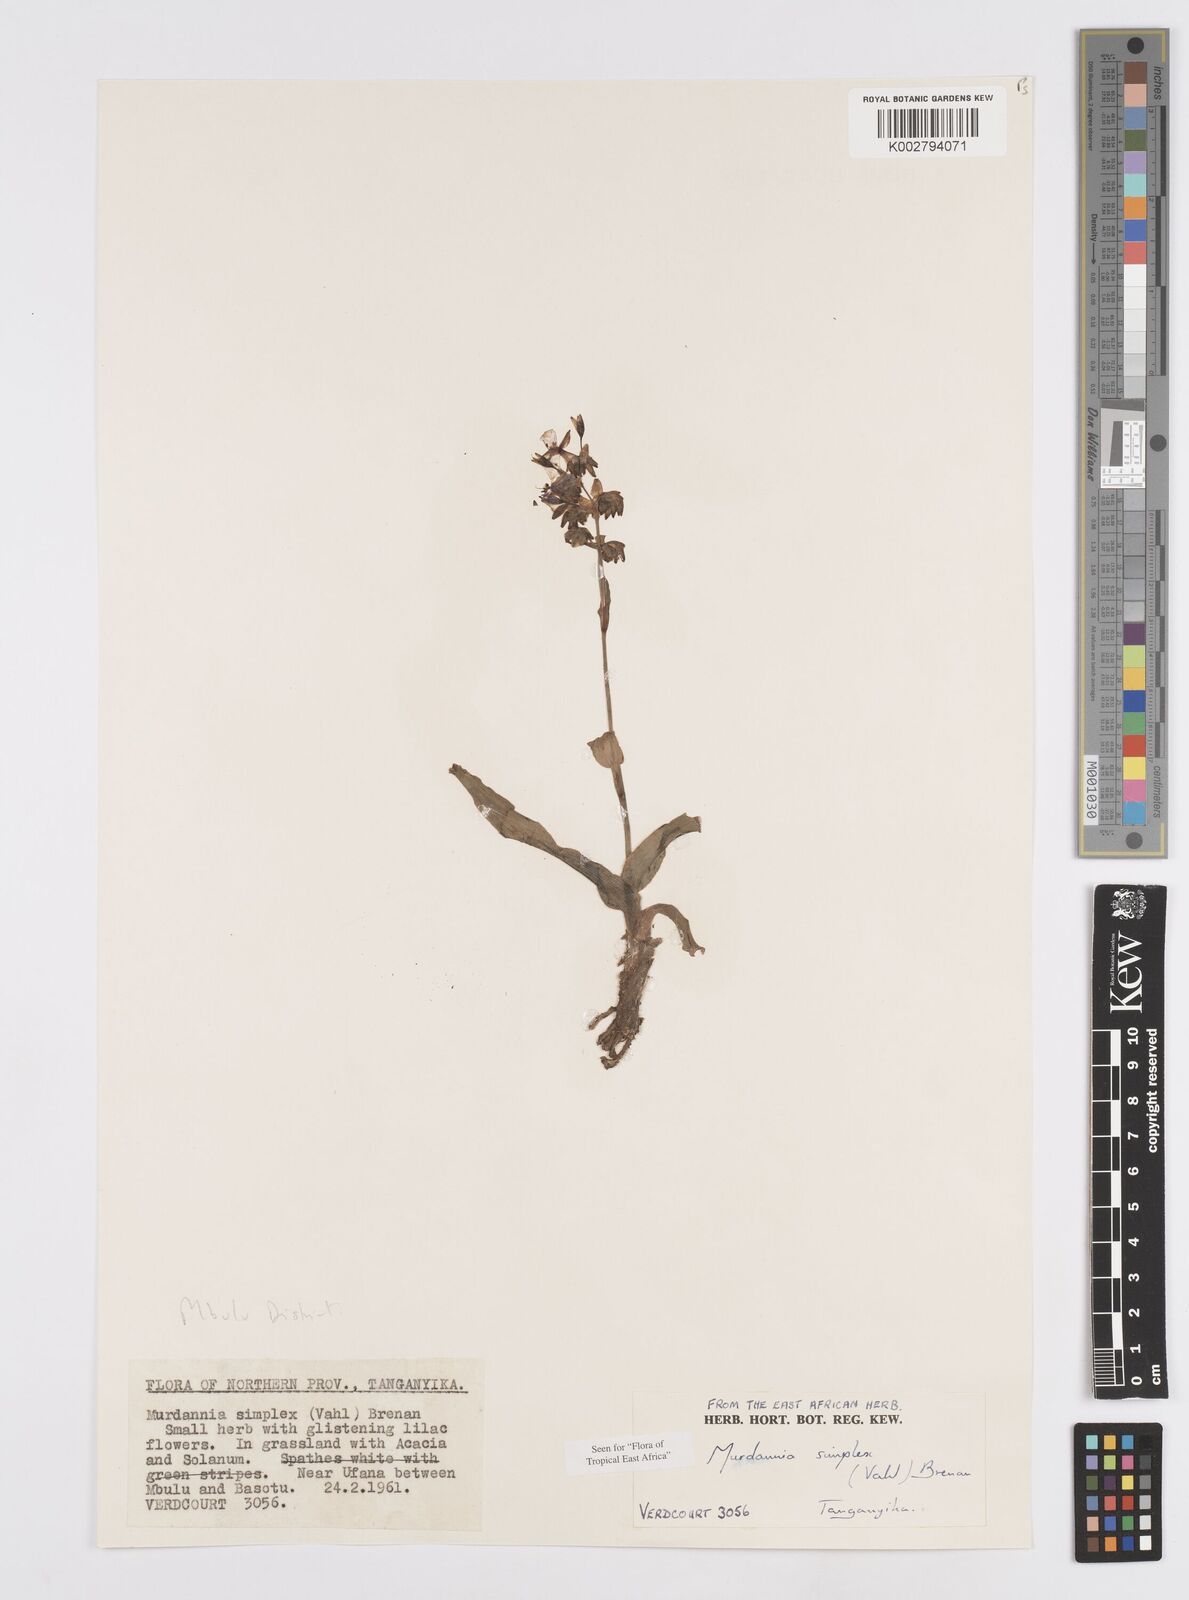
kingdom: Plantae
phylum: Tracheophyta
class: Liliopsida
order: Commelinales
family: Commelinaceae
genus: Murdannia
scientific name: Murdannia simplex
